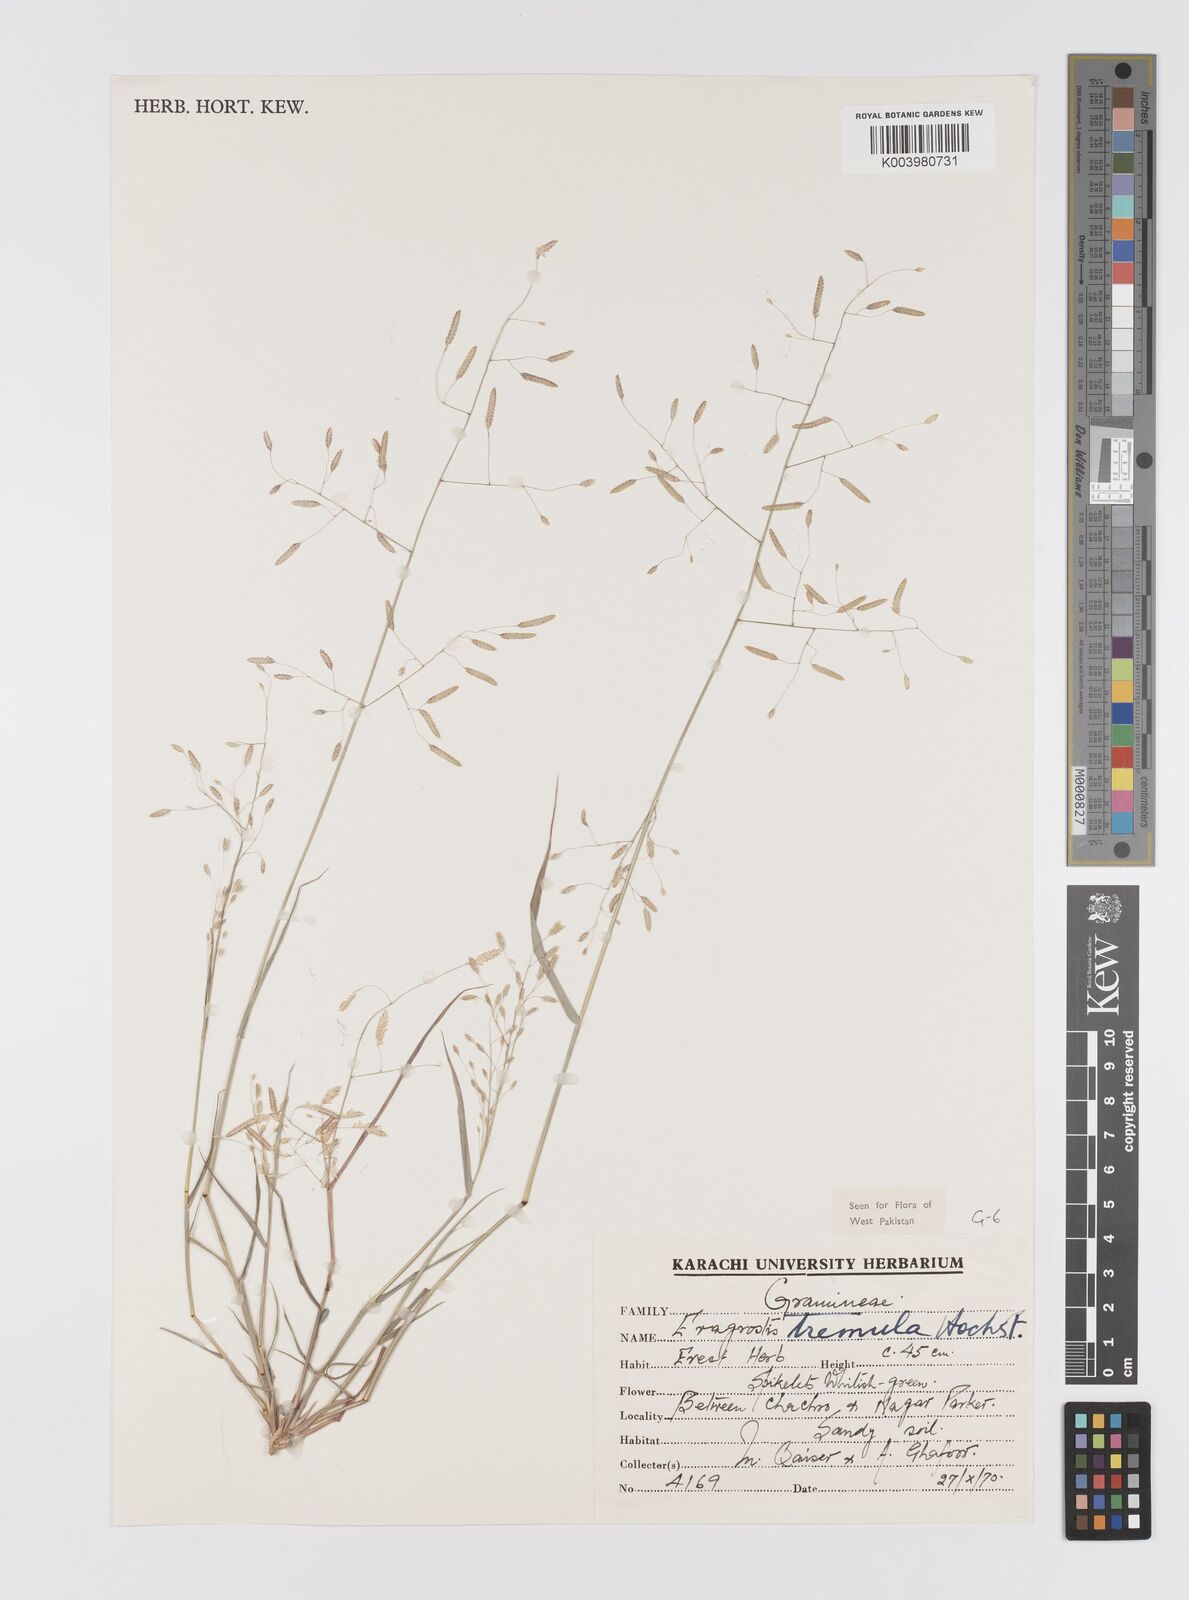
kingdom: Plantae
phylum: Tracheophyta
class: Liliopsida
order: Poales
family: Poaceae
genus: Eragrostis
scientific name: Eragrostis tremula
